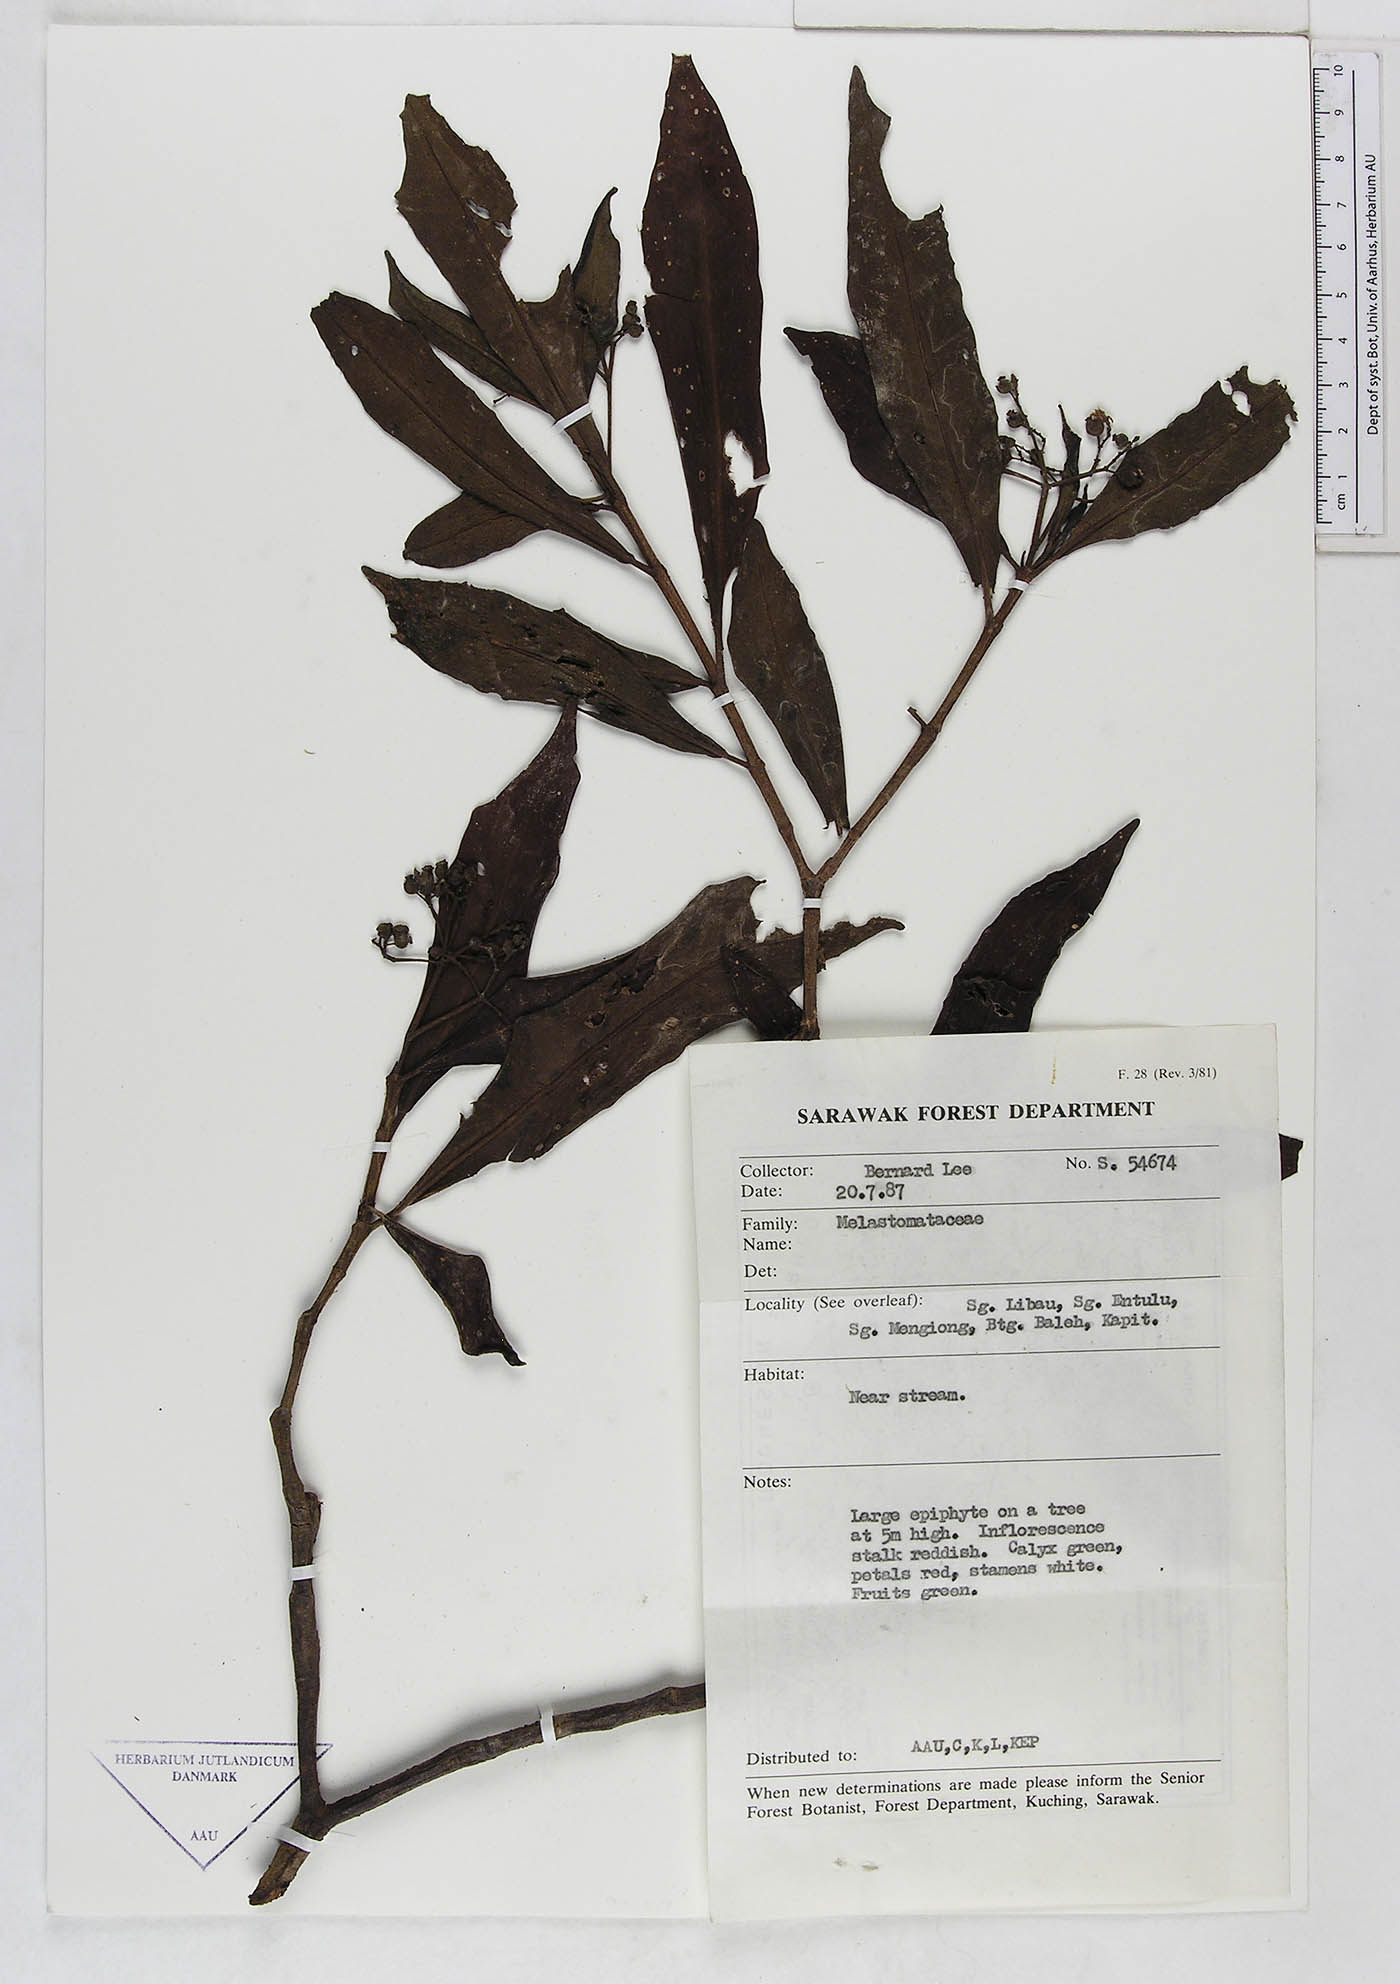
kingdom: Plantae
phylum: Tracheophyta
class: Magnoliopsida
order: Myrtales
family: Melastomataceae
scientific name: Melastomataceae
